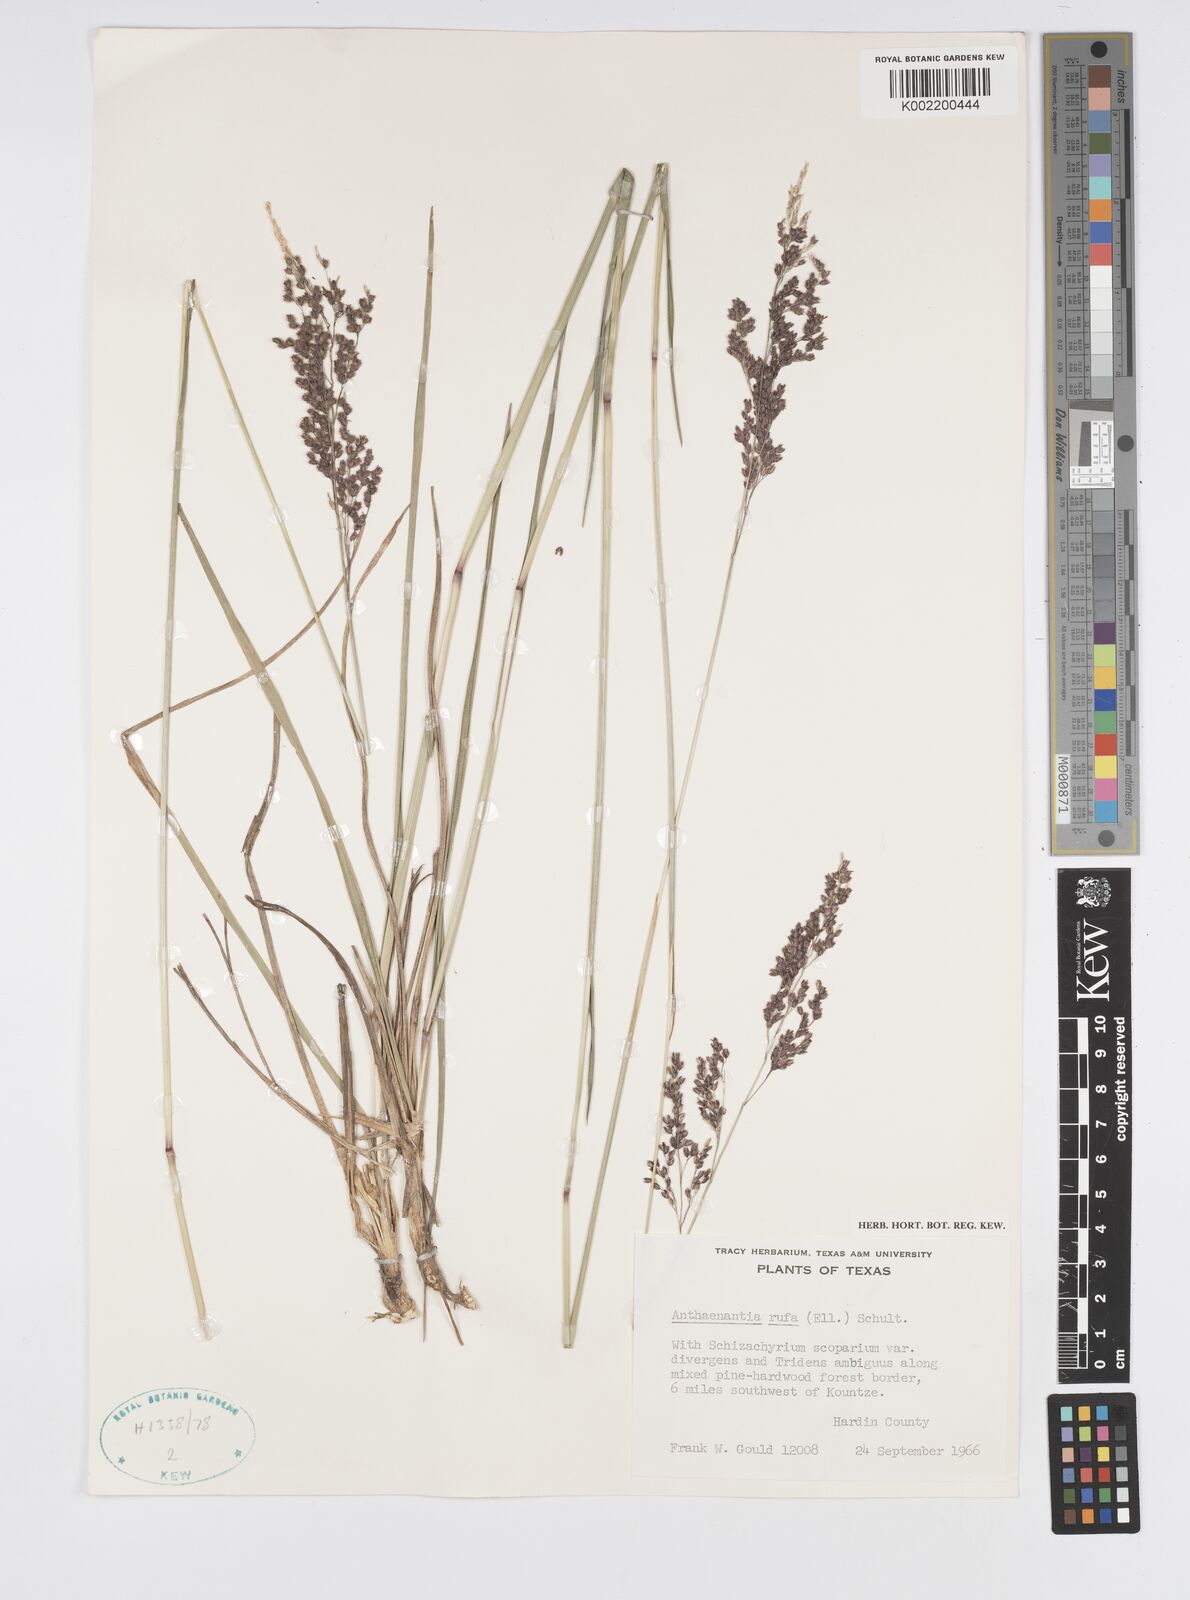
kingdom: Plantae
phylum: Tracheophyta
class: Liliopsida
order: Poales
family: Poaceae
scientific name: Poaceae
